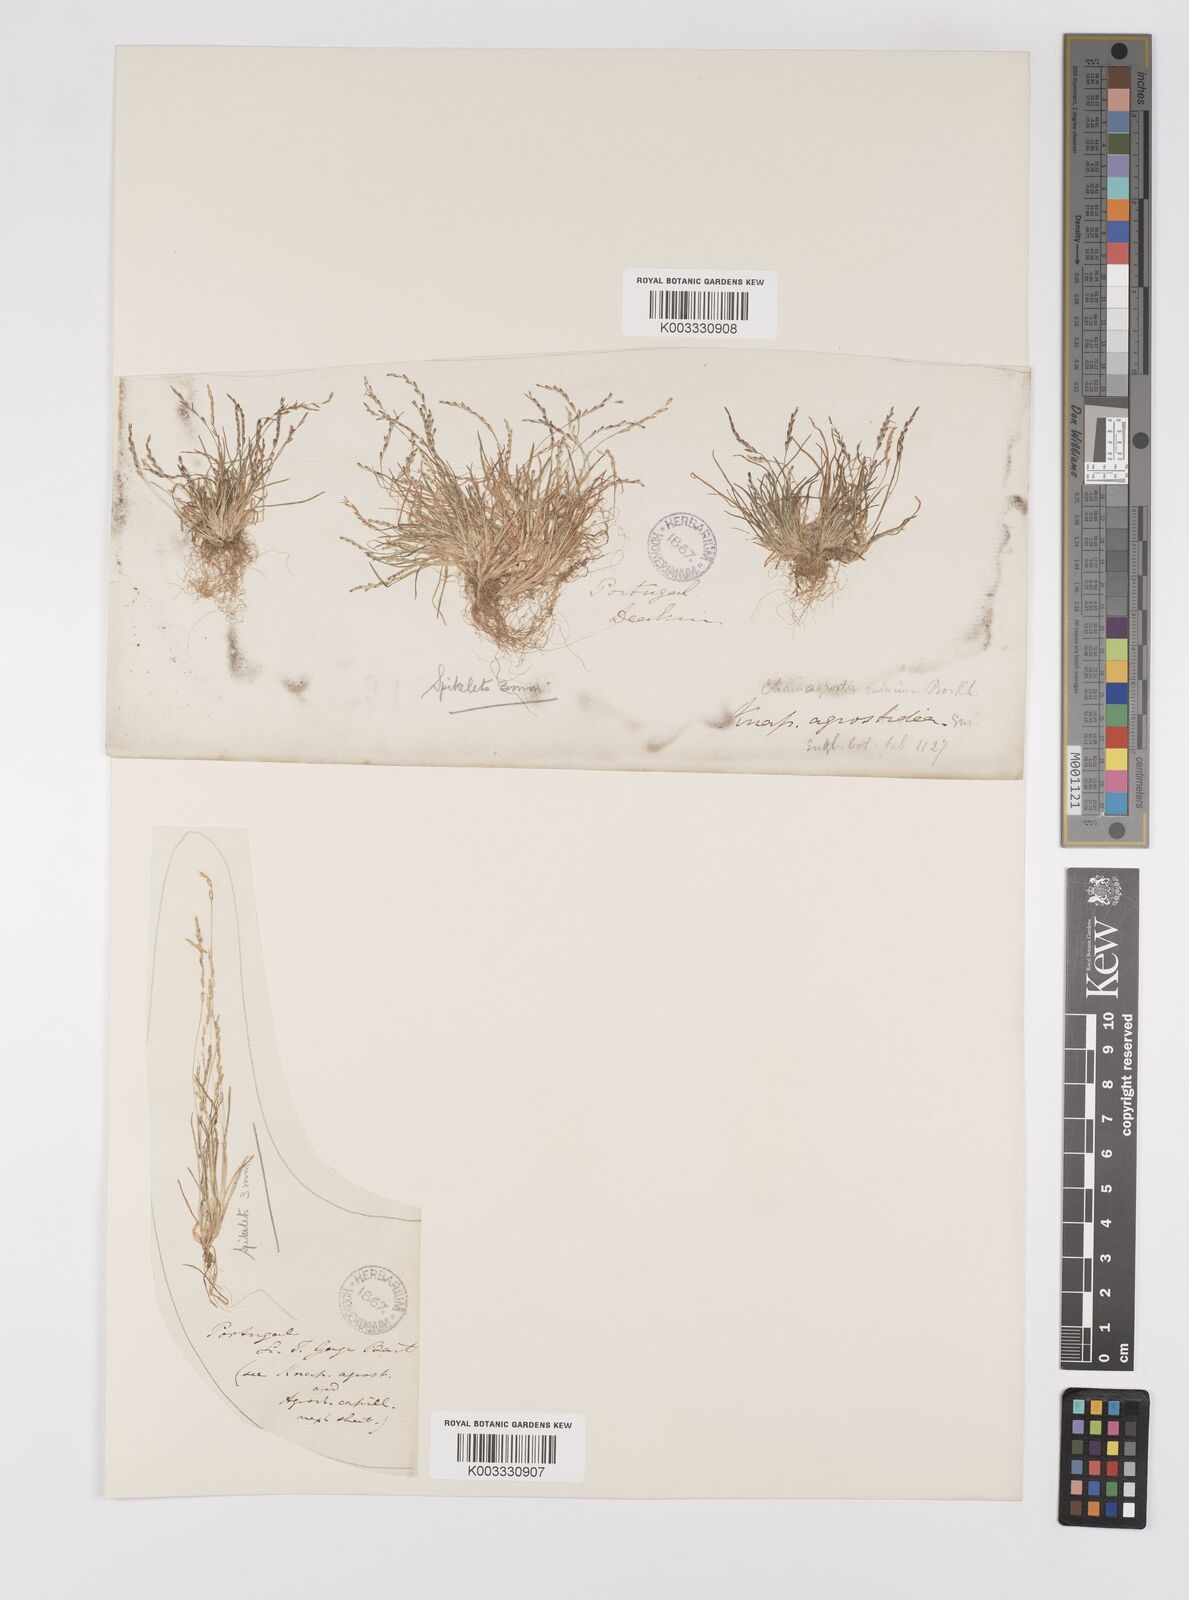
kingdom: Plantae
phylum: Tracheophyta
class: Liliopsida
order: Poales
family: Poaceae
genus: Mibora
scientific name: Mibora minima
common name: Early sand-grass
